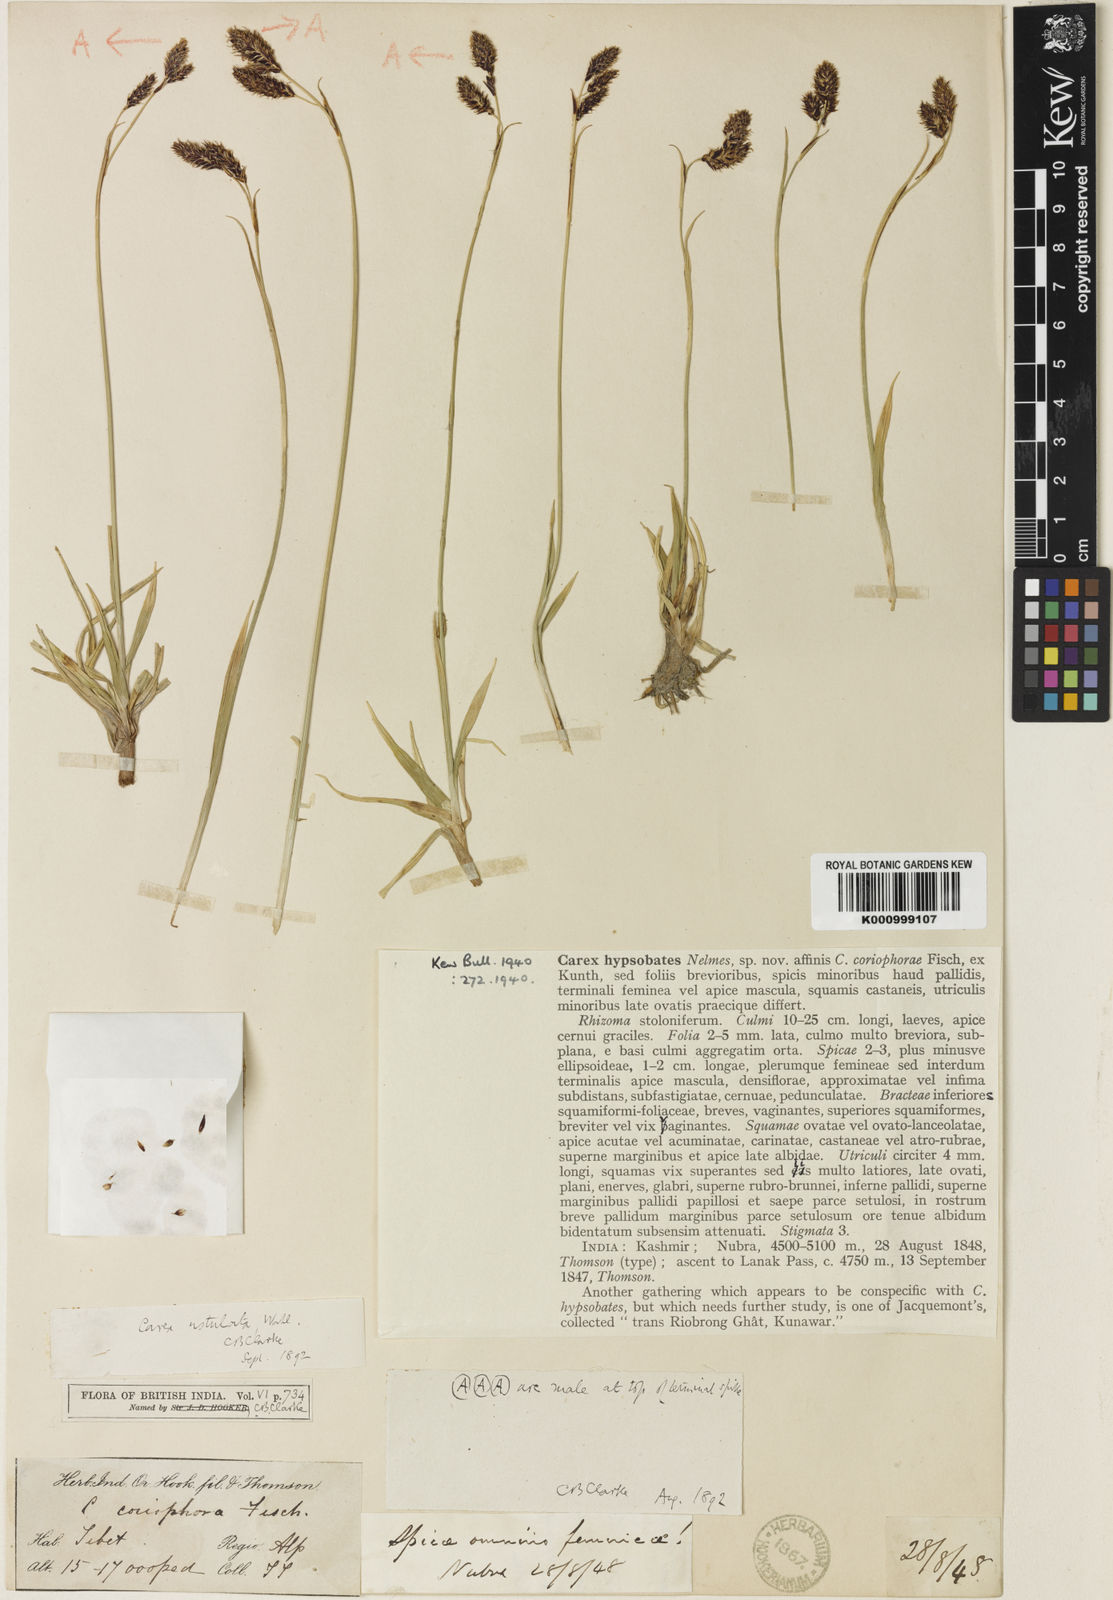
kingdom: Plantae
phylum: Tracheophyta
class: Liliopsida
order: Poales
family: Cyperaceae
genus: Carex
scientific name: Carex hypsobates
